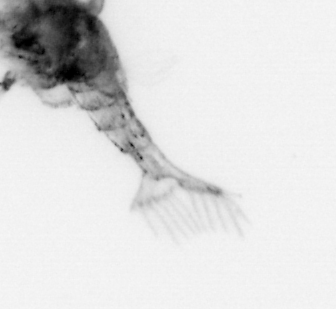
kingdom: Animalia
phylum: Arthropoda
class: Malacostraca
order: Decapoda
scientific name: Decapoda
